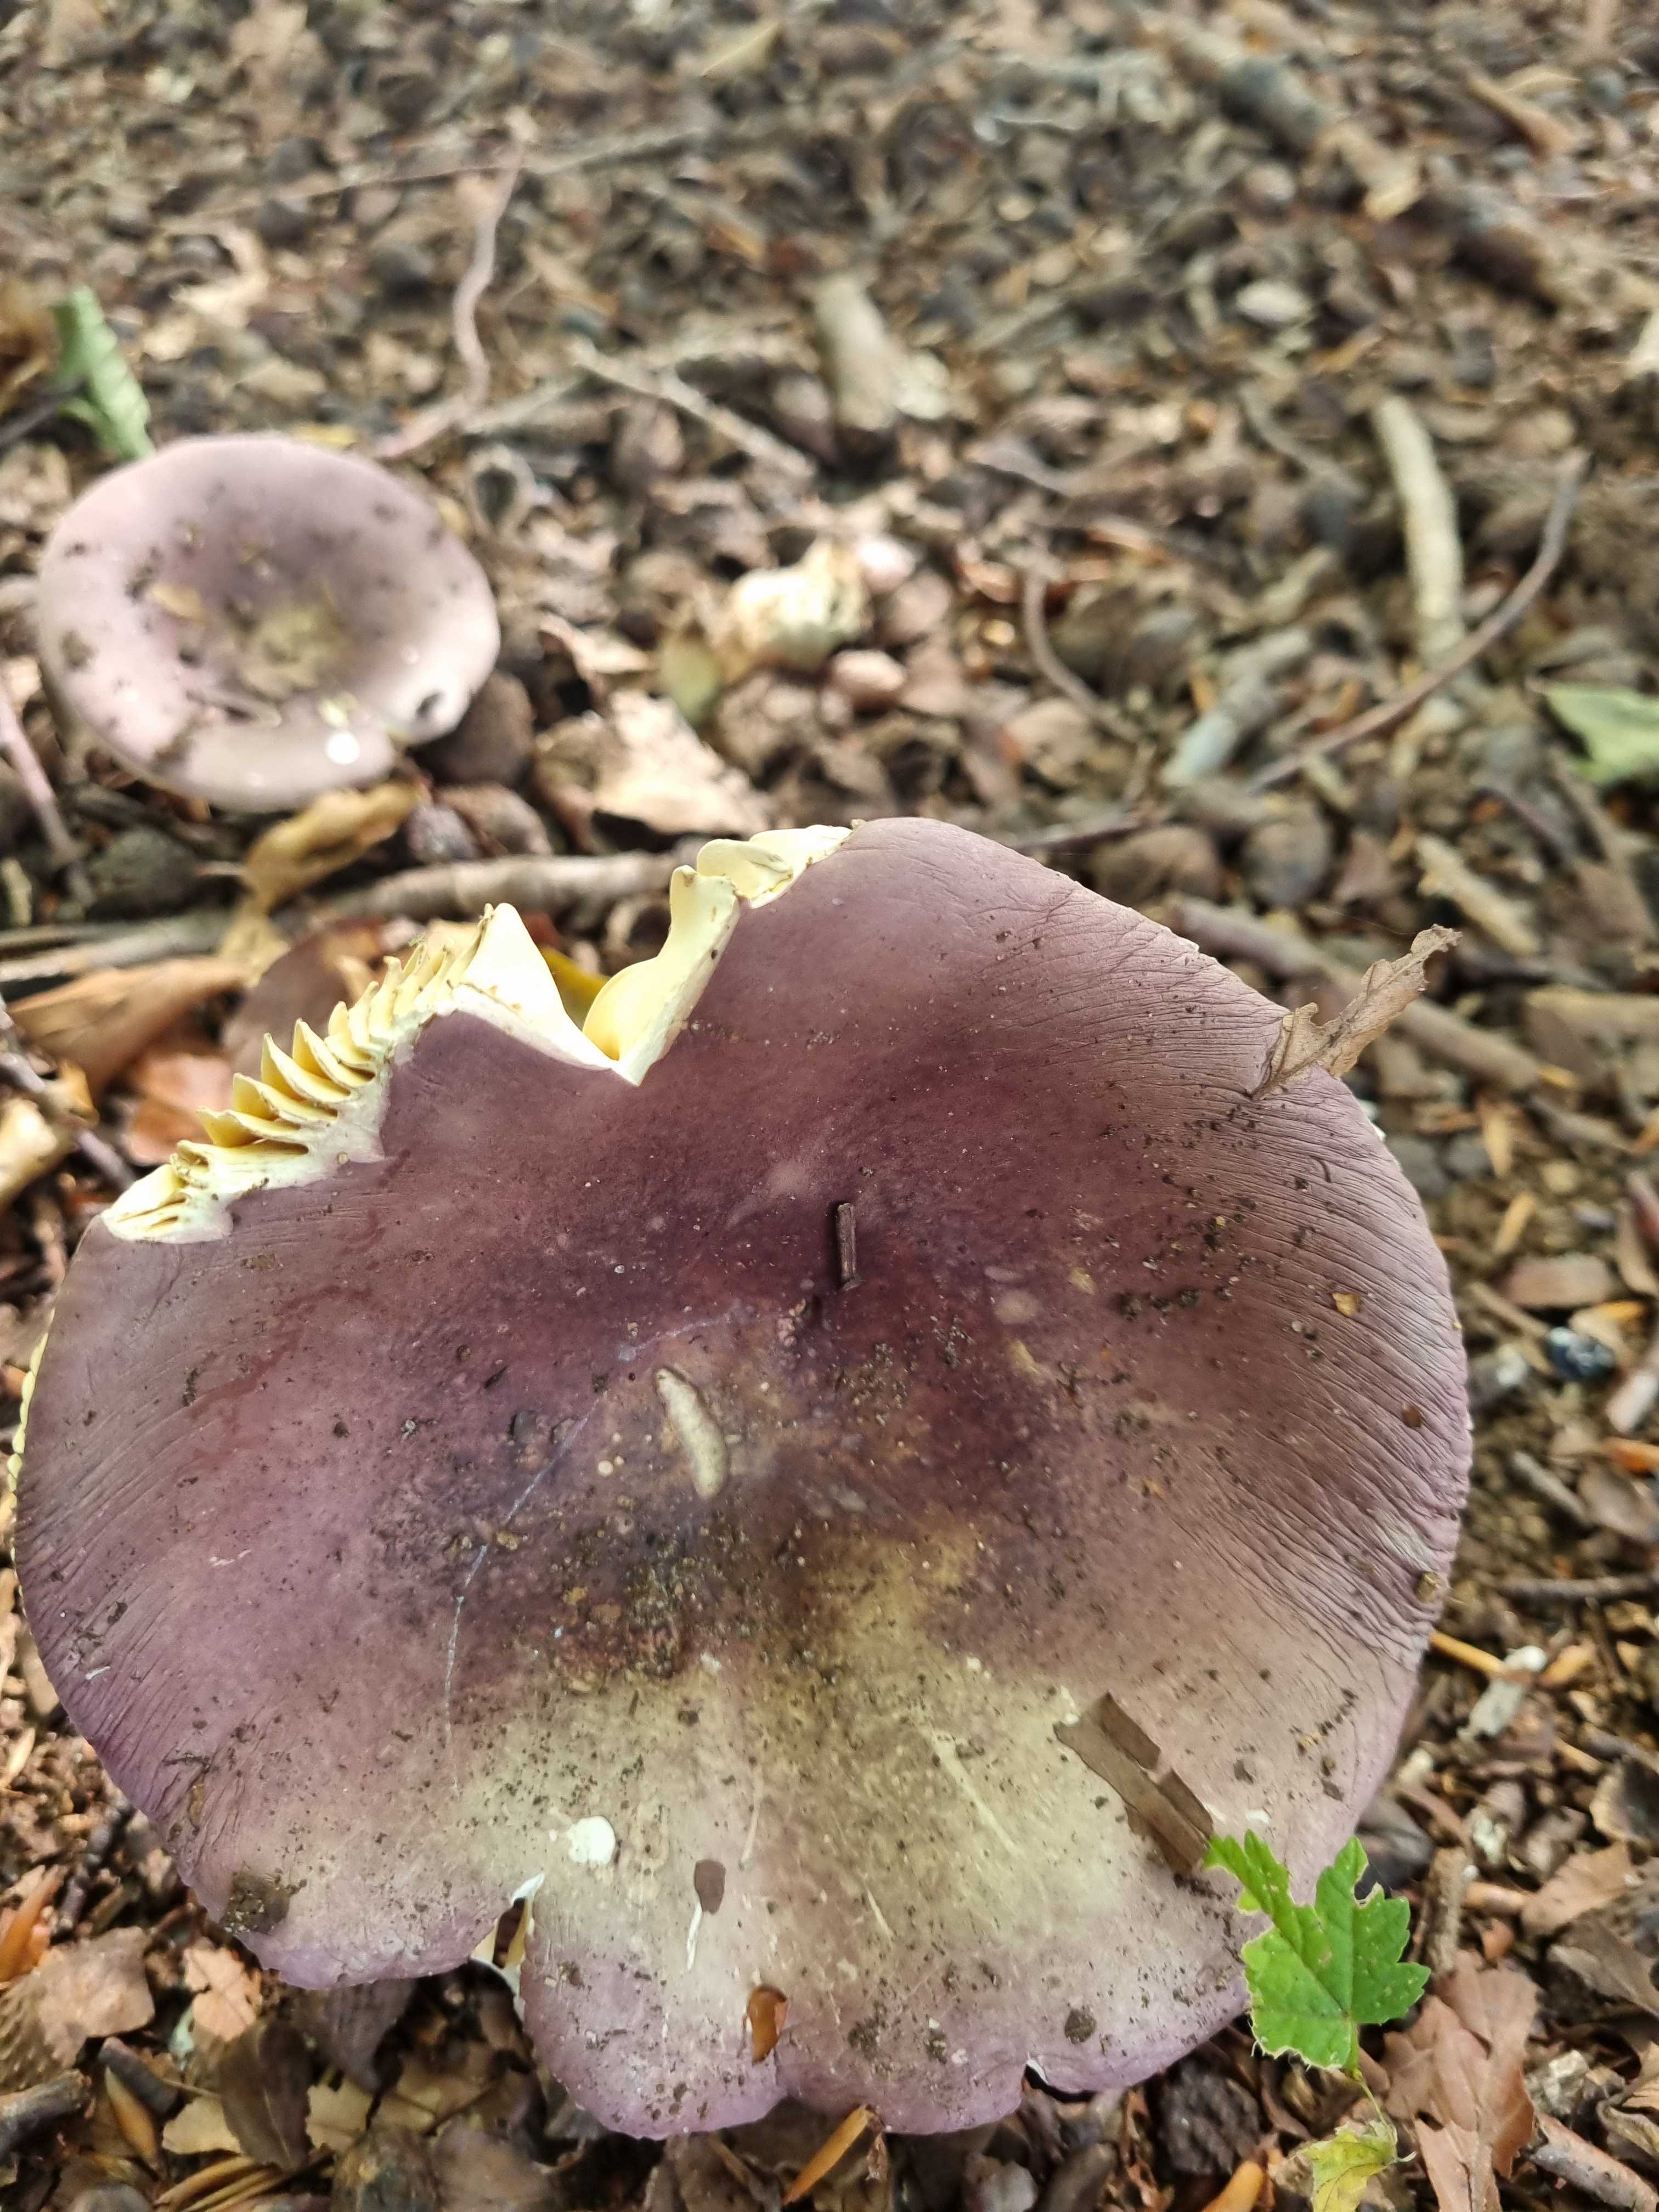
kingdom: Fungi
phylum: Basidiomycota
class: Agaricomycetes
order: Russulales
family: Russulaceae
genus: Russula
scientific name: Russula olivacea
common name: stor skørhat
